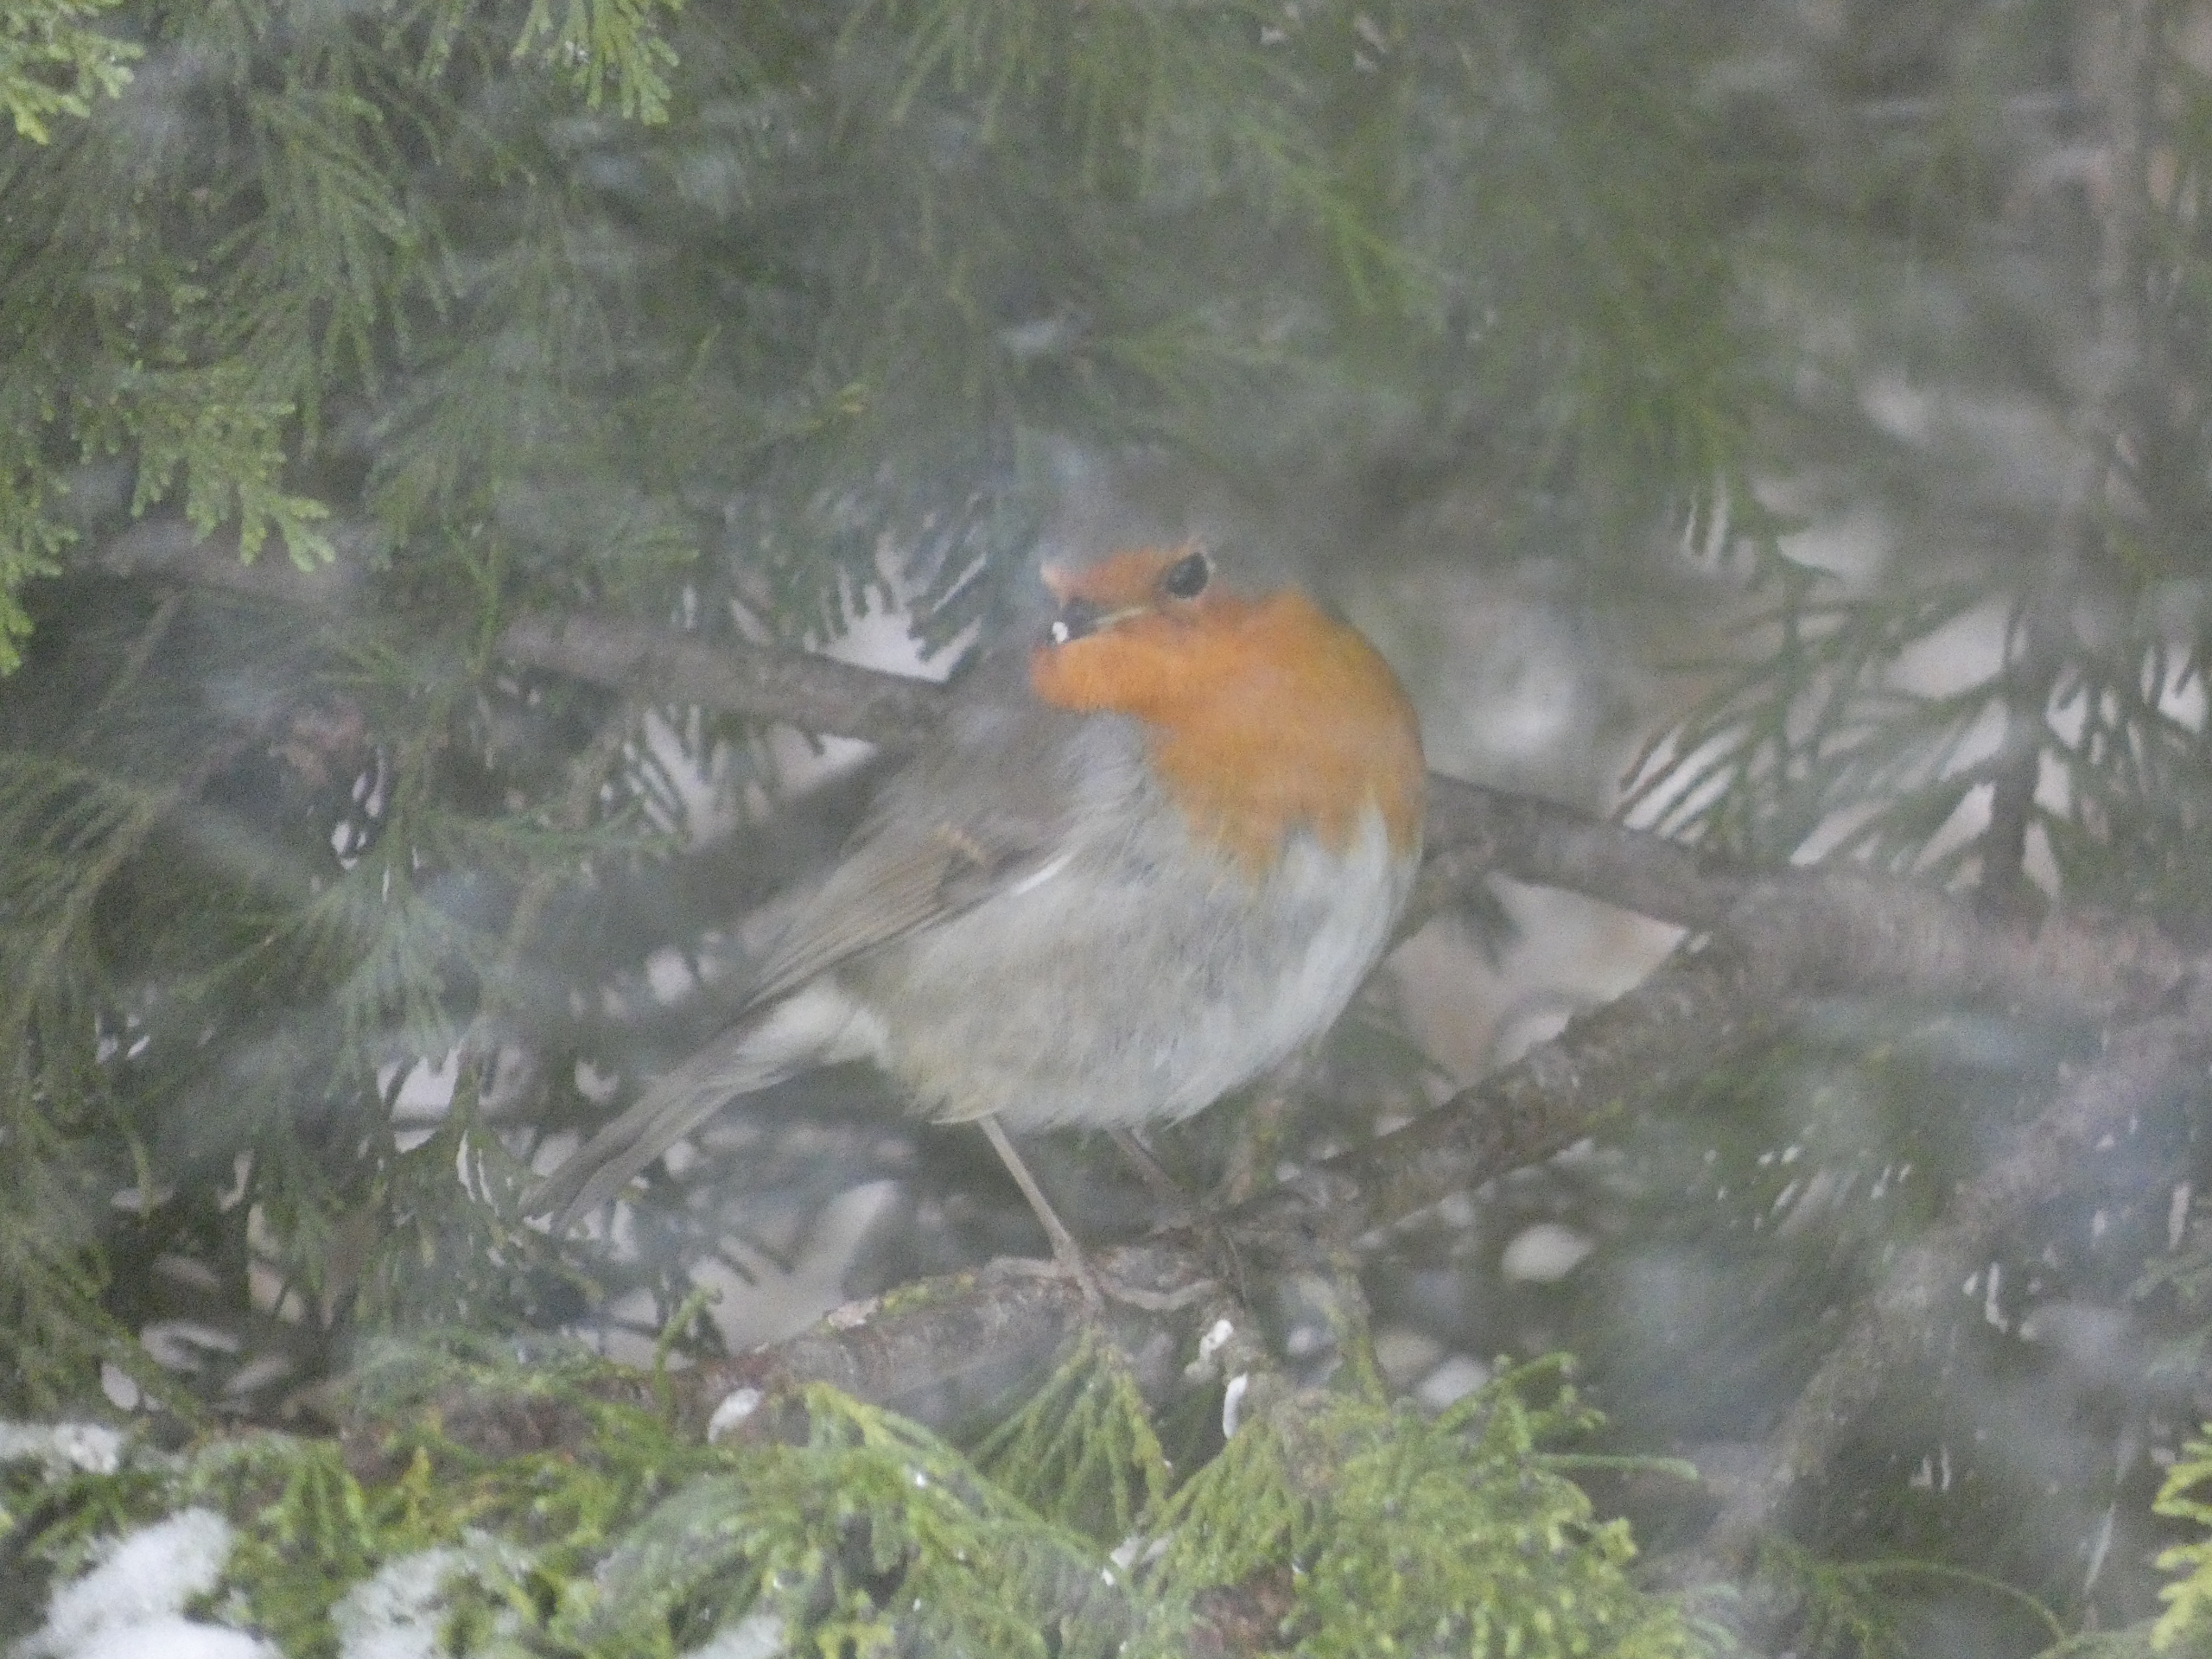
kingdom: Animalia
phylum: Chordata
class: Aves
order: Passeriformes
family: Muscicapidae
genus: Erithacus
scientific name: Erithacus rubecula
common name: Rødhals/rødkælk
